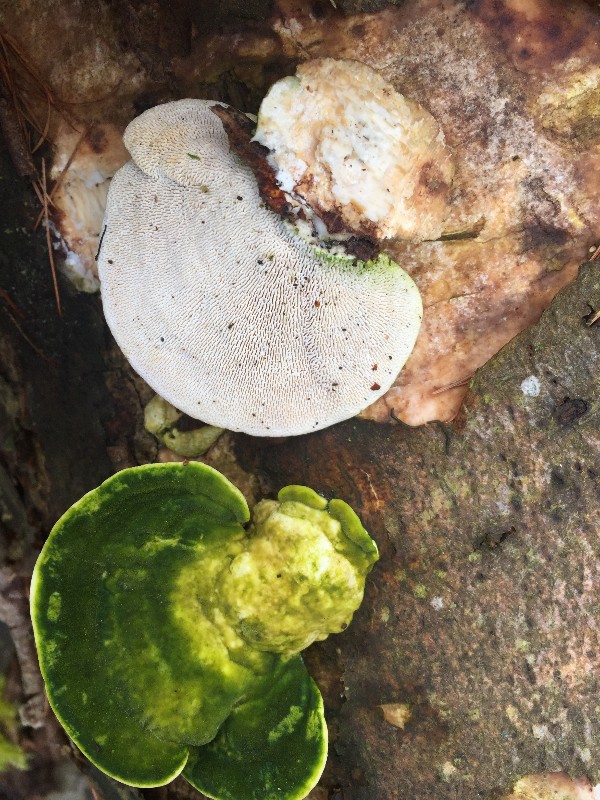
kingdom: Fungi
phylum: Basidiomycota
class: Agaricomycetes
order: Polyporales
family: Polyporaceae
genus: Trametes
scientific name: Trametes gibbosa
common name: puklet læderporesvamp
